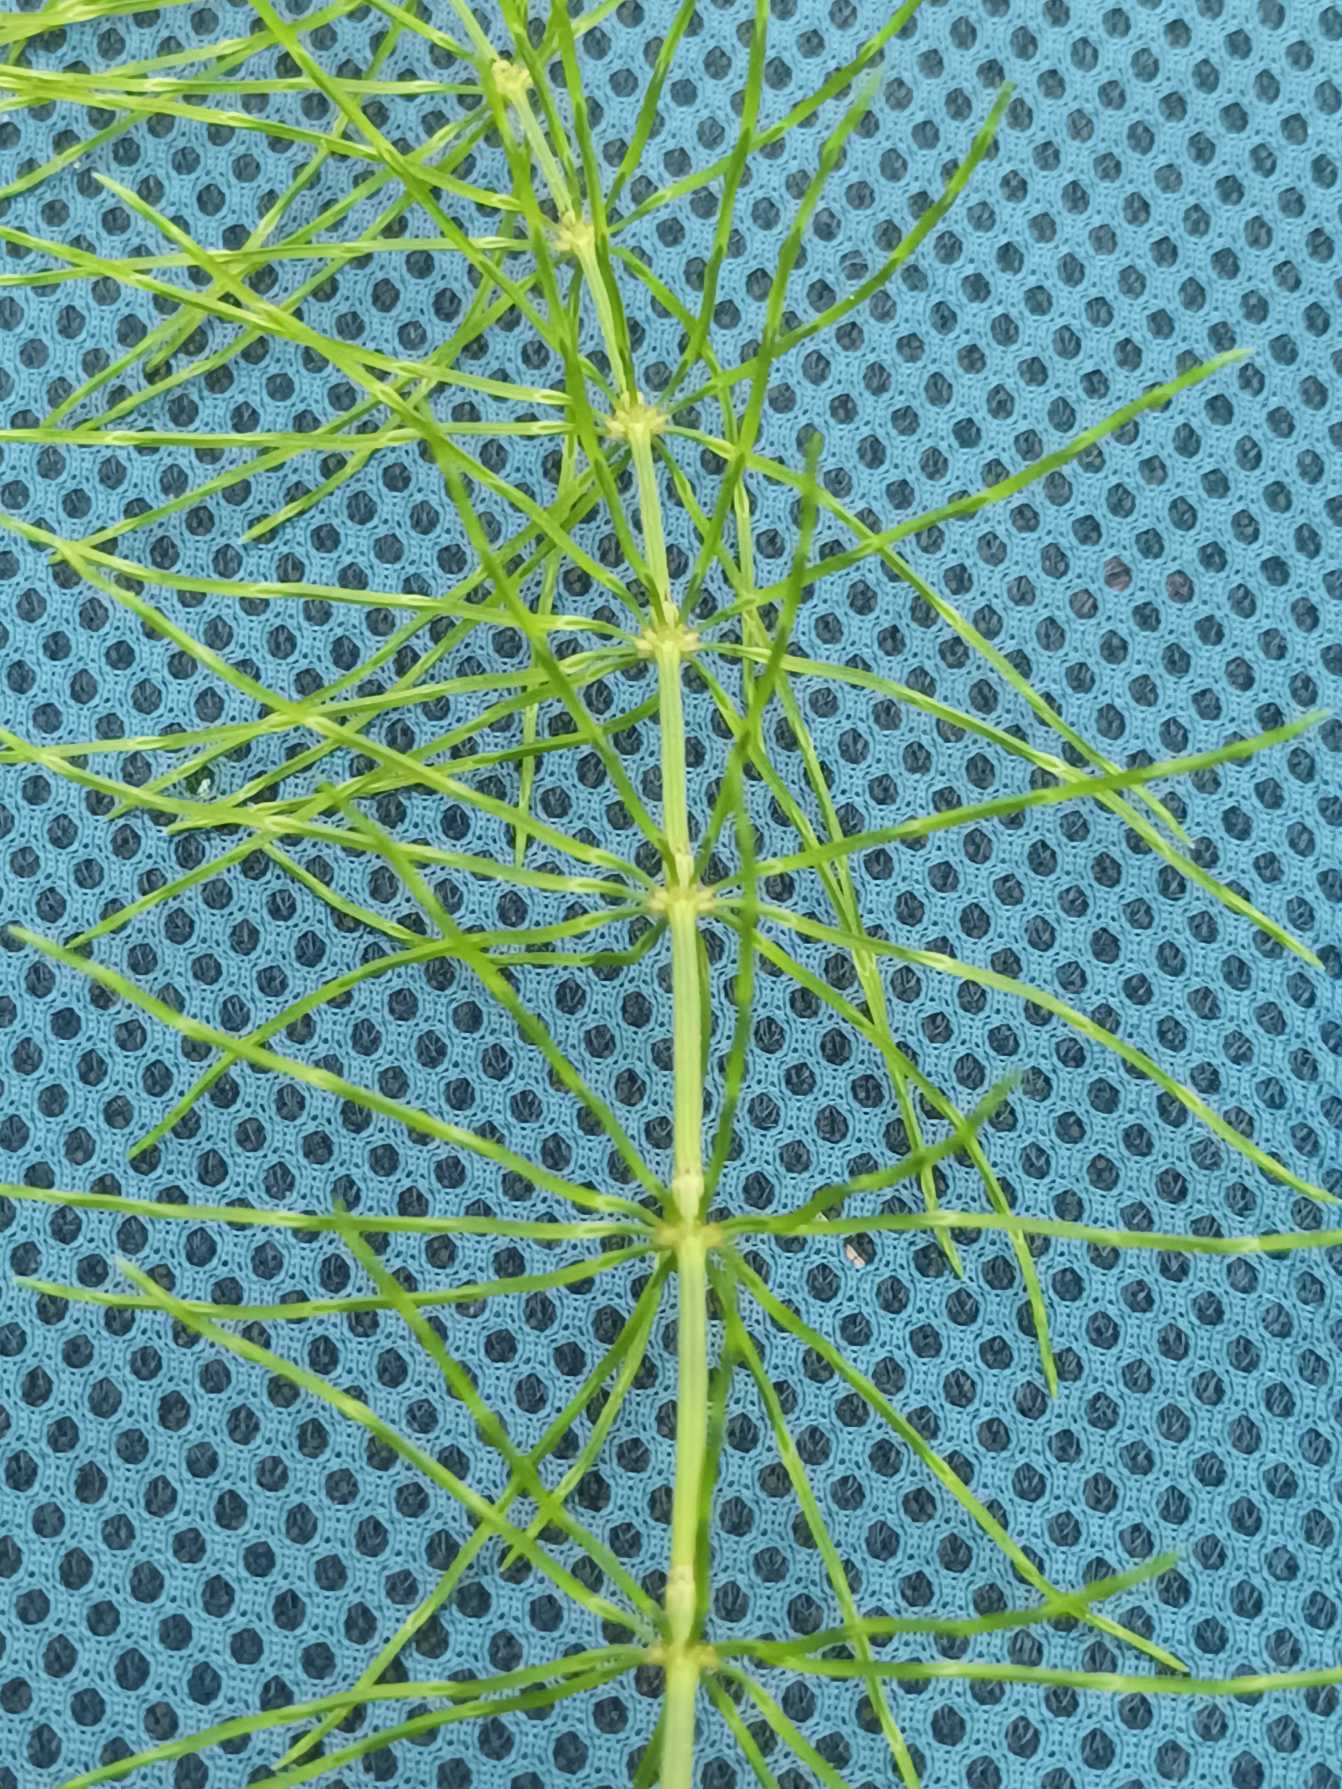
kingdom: Plantae
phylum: Tracheophyta
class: Polypodiopsida
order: Equisetales
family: Equisetaceae
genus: Equisetum
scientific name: Equisetum pratense
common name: Lund-padderok
